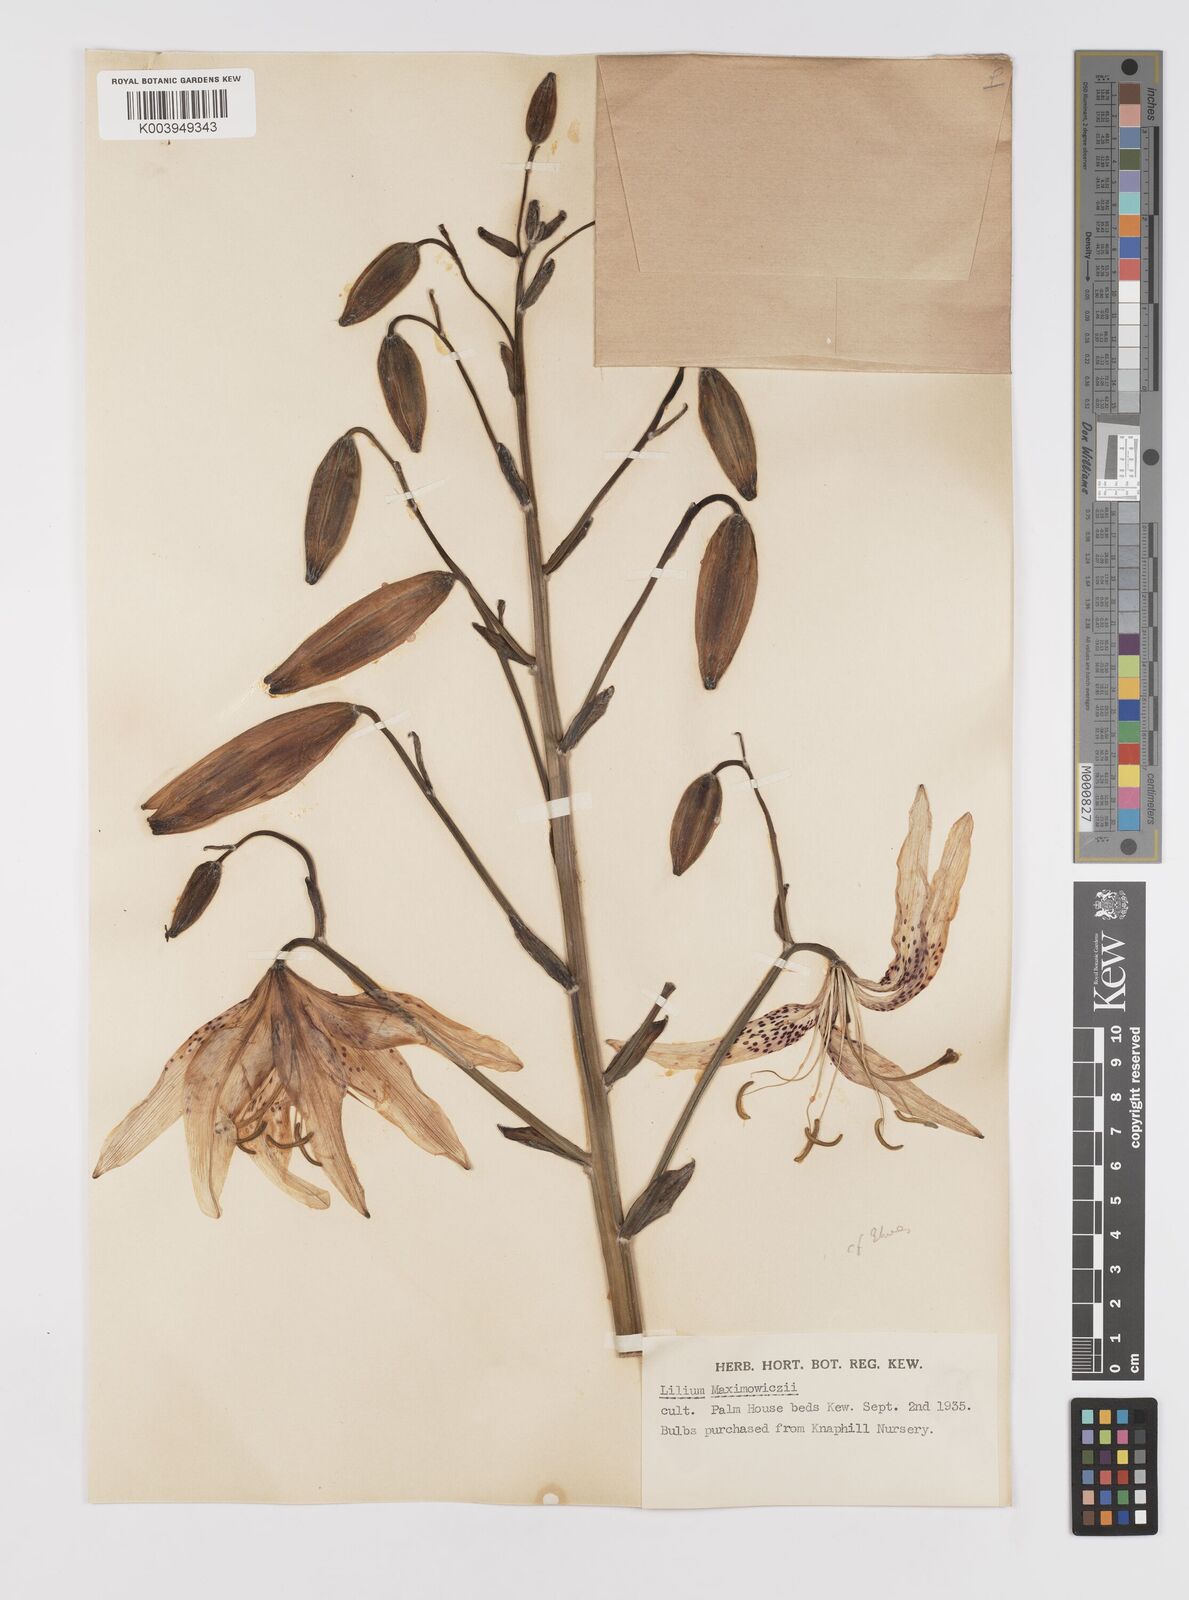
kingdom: Plantae
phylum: Tracheophyta
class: Liliopsida
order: Liliales
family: Liliaceae
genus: Lilium
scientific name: Lilium leichtlinii
